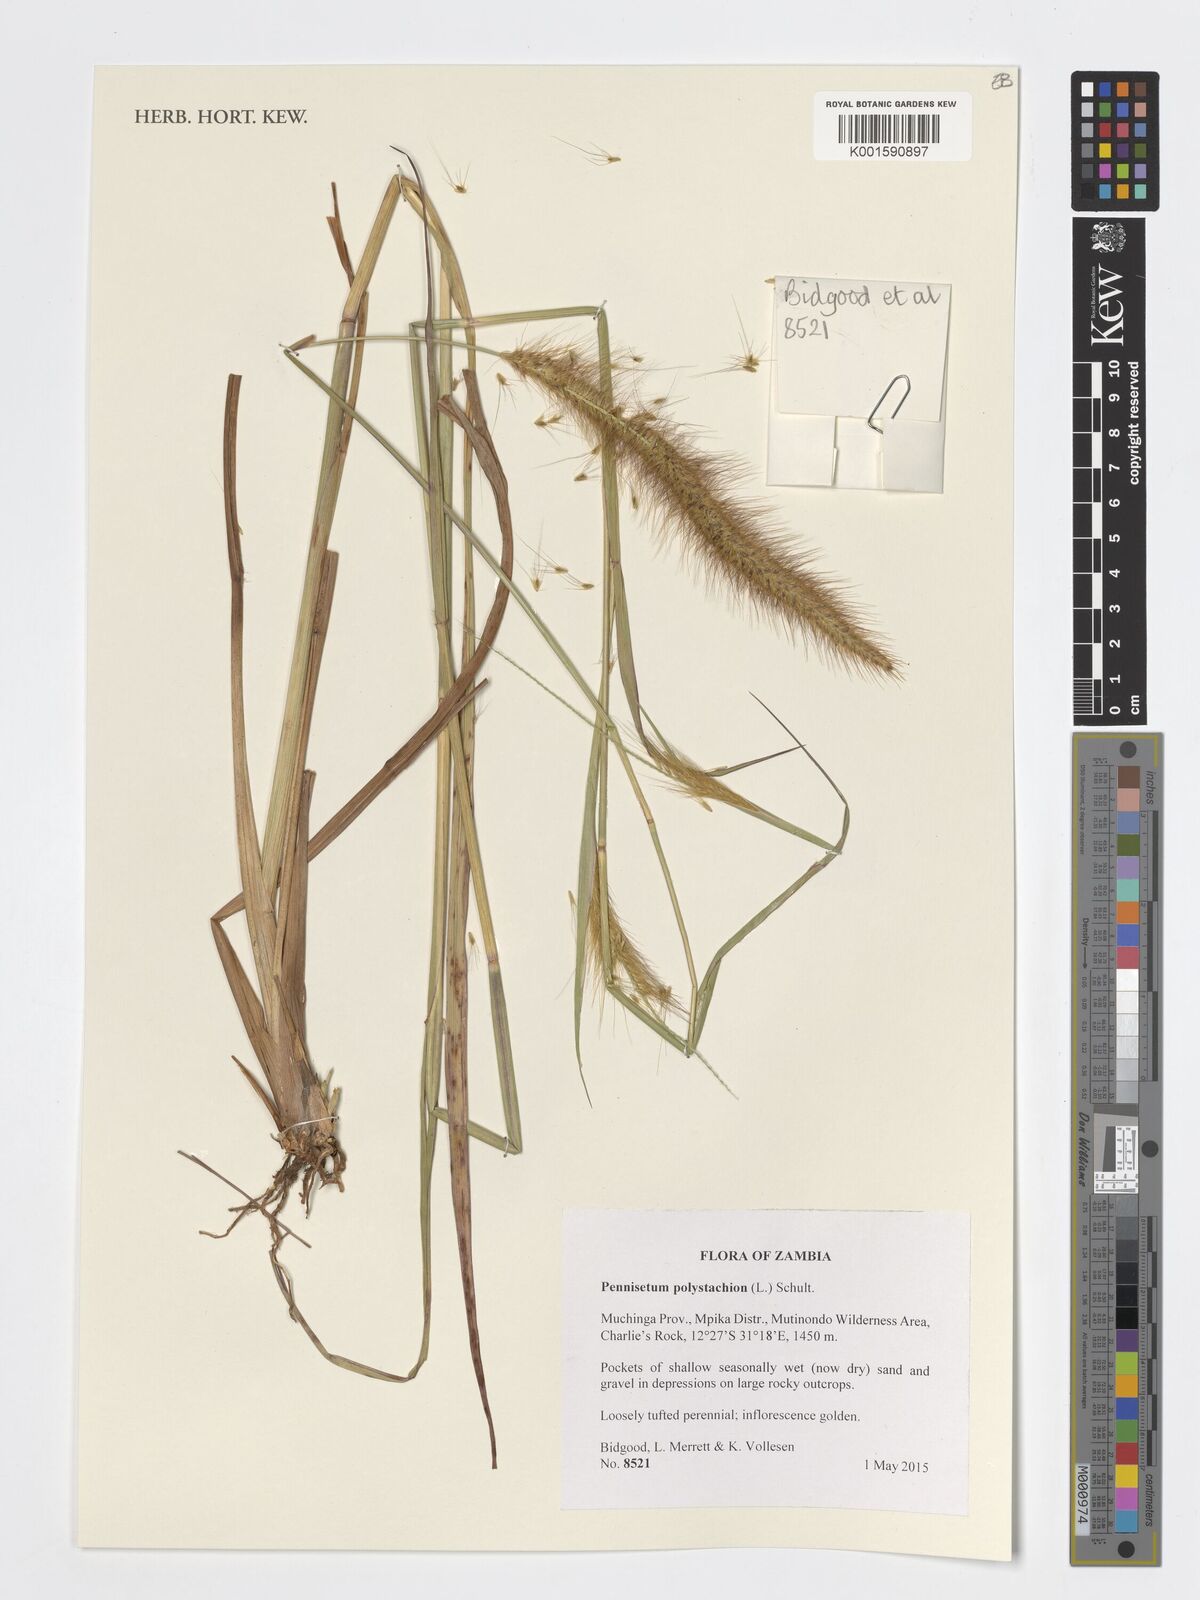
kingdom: Plantae
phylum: Tracheophyta
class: Liliopsida
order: Poales
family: Poaceae
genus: Setaria
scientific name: Setaria parviflora
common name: Knotroot bristle-grass
